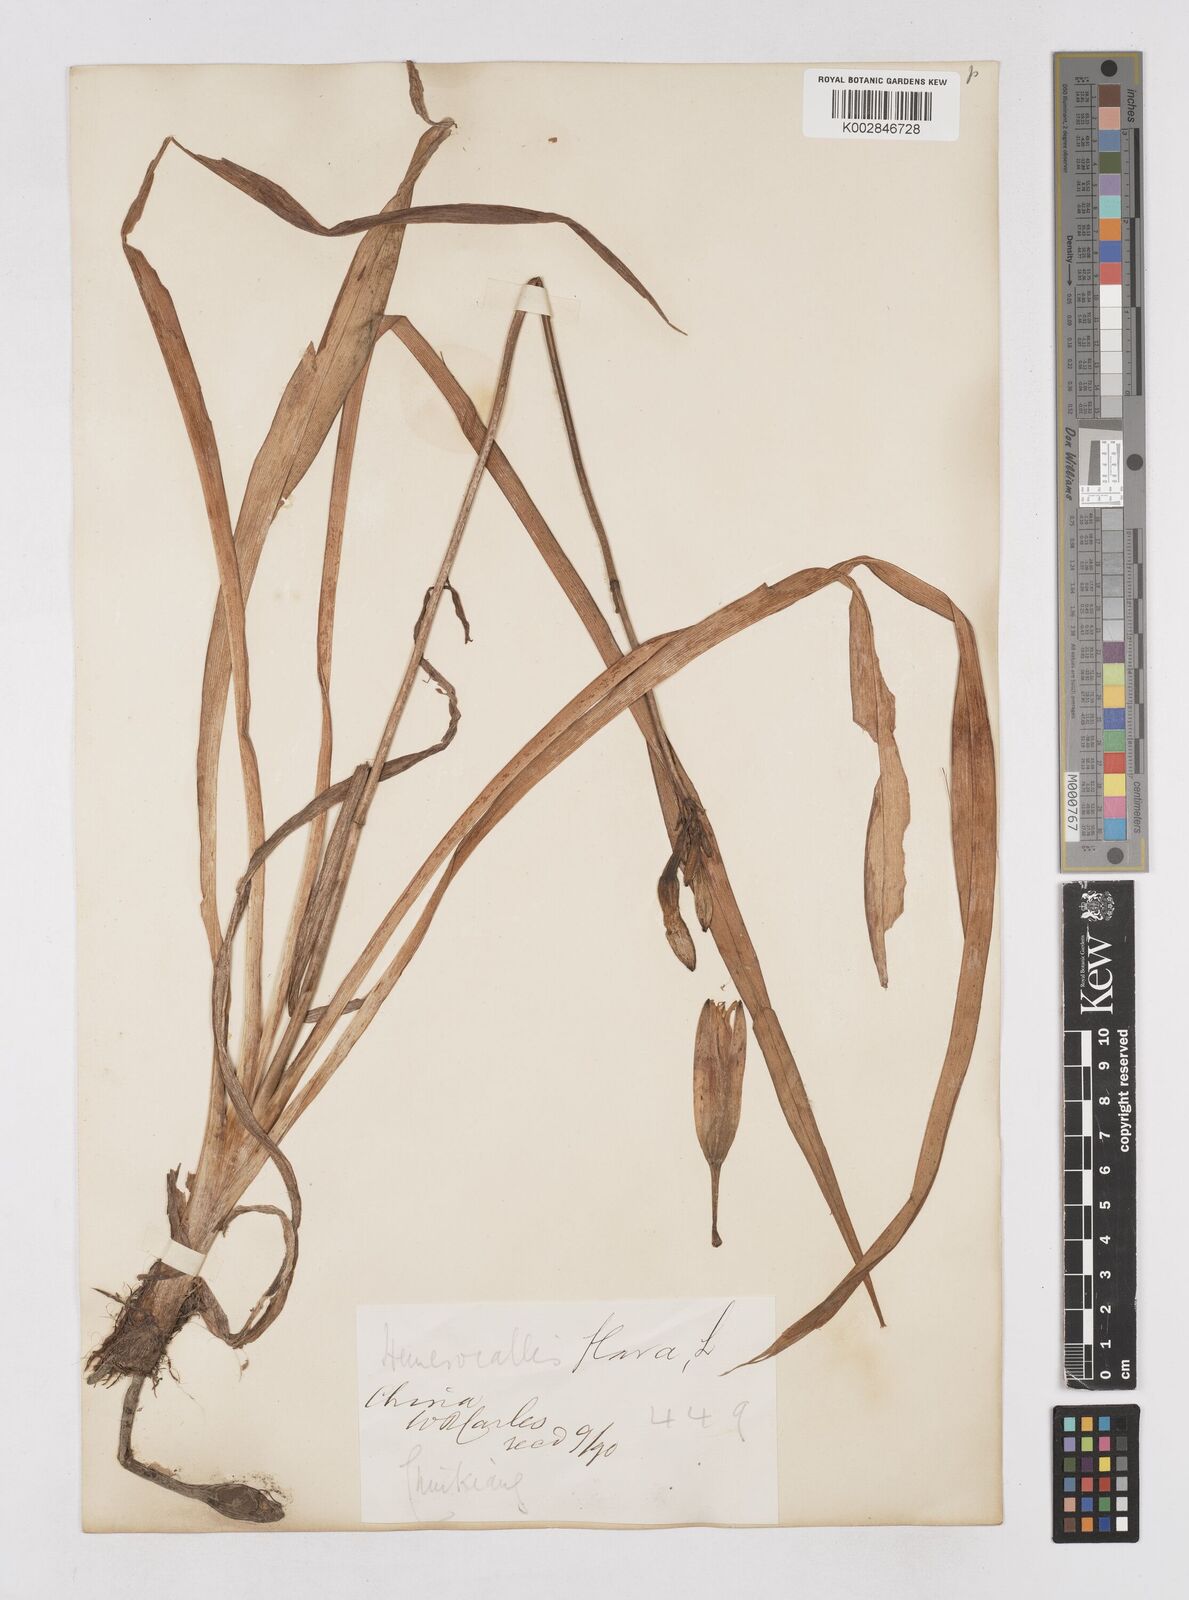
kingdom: Plantae
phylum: Tracheophyta
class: Liliopsida
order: Asparagales
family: Asphodelaceae
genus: Hemerocallis
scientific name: Hemerocallis
